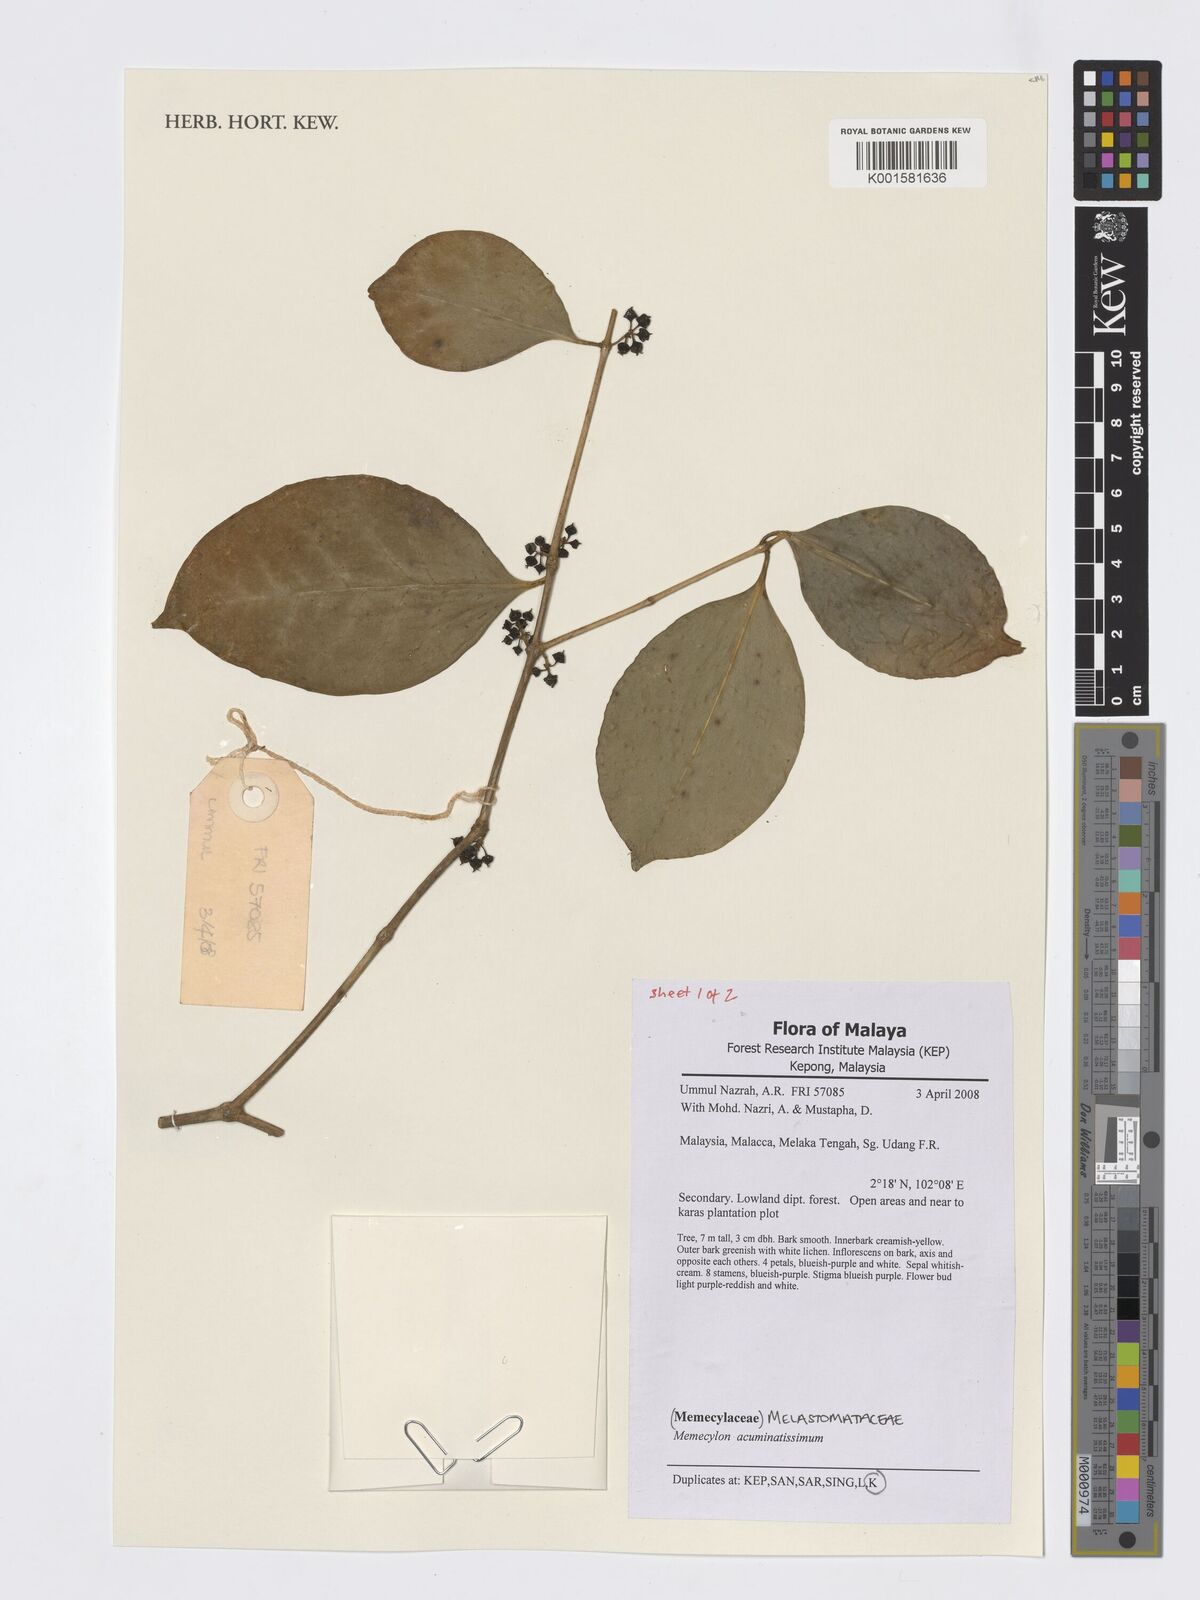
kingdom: Plantae
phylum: Tracheophyta
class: Magnoliopsida
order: Myrtales
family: Melastomataceae
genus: Memecylon
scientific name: Memecylon acuminatissimum
